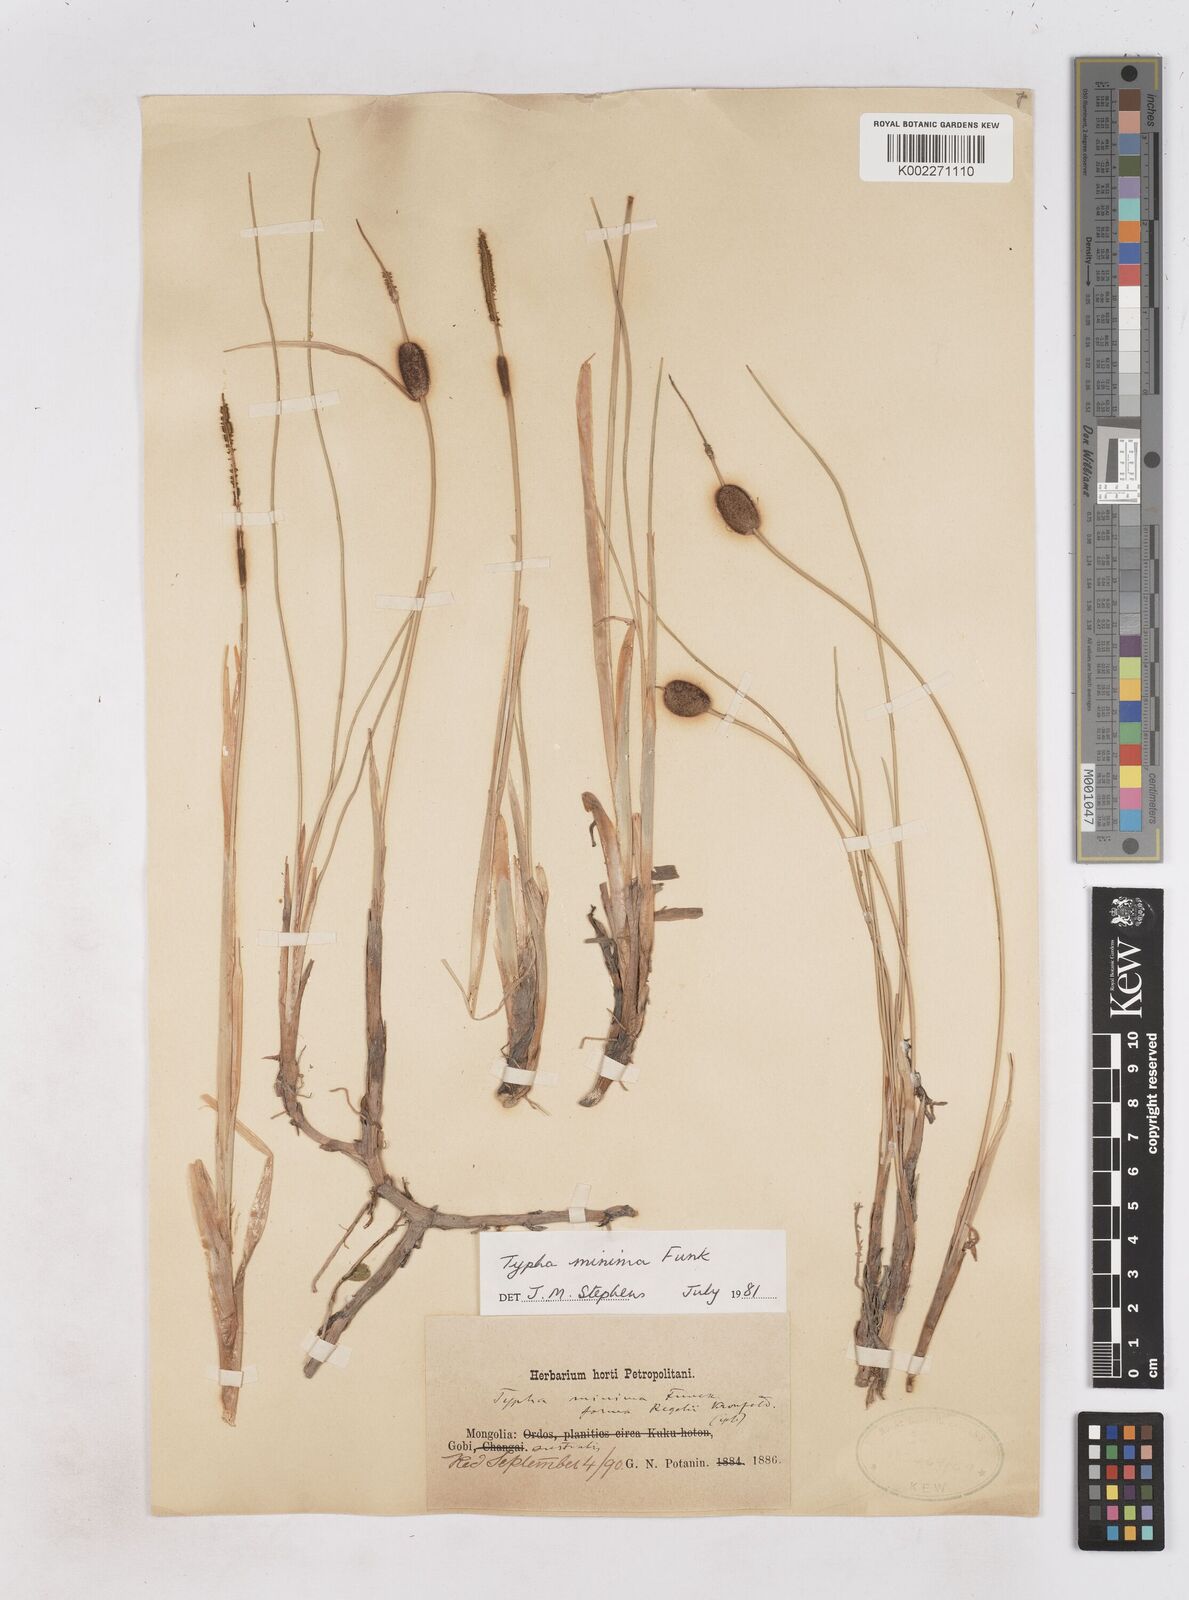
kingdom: Plantae
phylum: Tracheophyta
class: Liliopsida
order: Poales
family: Typhaceae
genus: Typha
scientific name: Typha minima
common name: Dwarf bulrush
